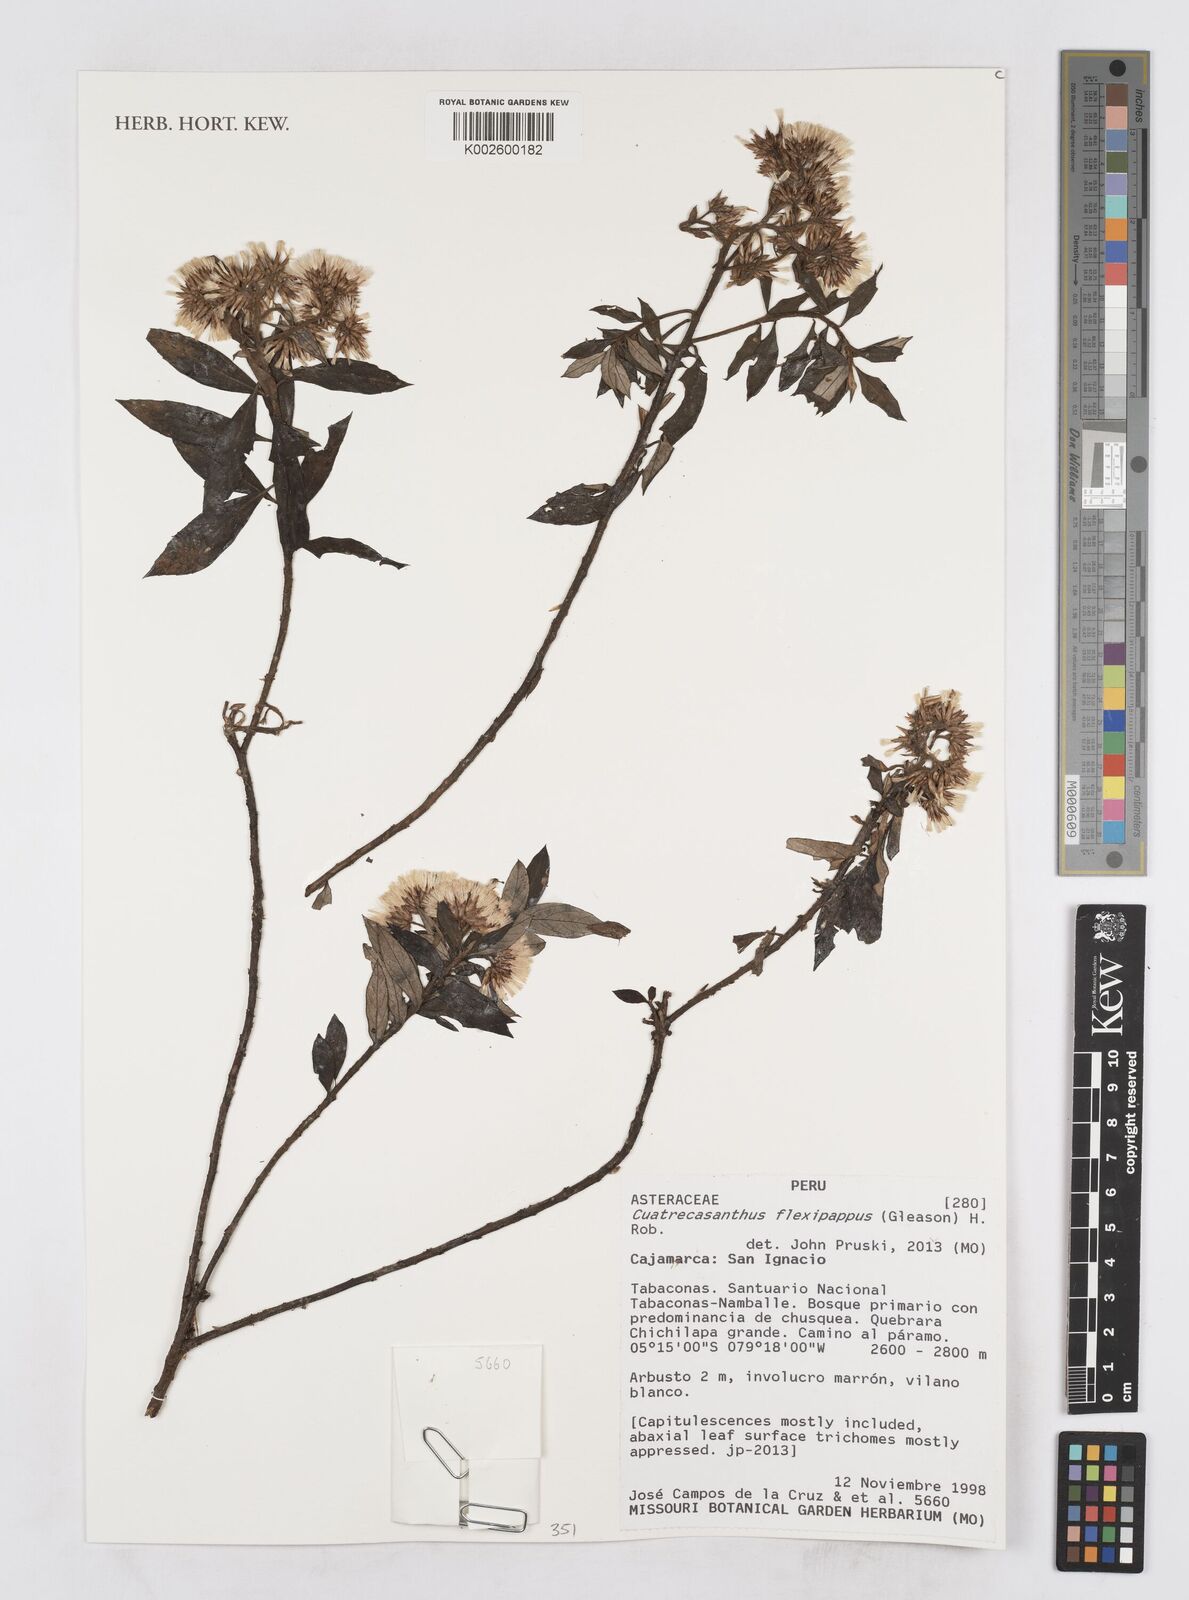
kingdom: Plantae
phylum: Tracheophyta
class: Magnoliopsida
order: Asterales
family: Asteraceae
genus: Cuatrecasanthus
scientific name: Cuatrecasanthus flexipappus
